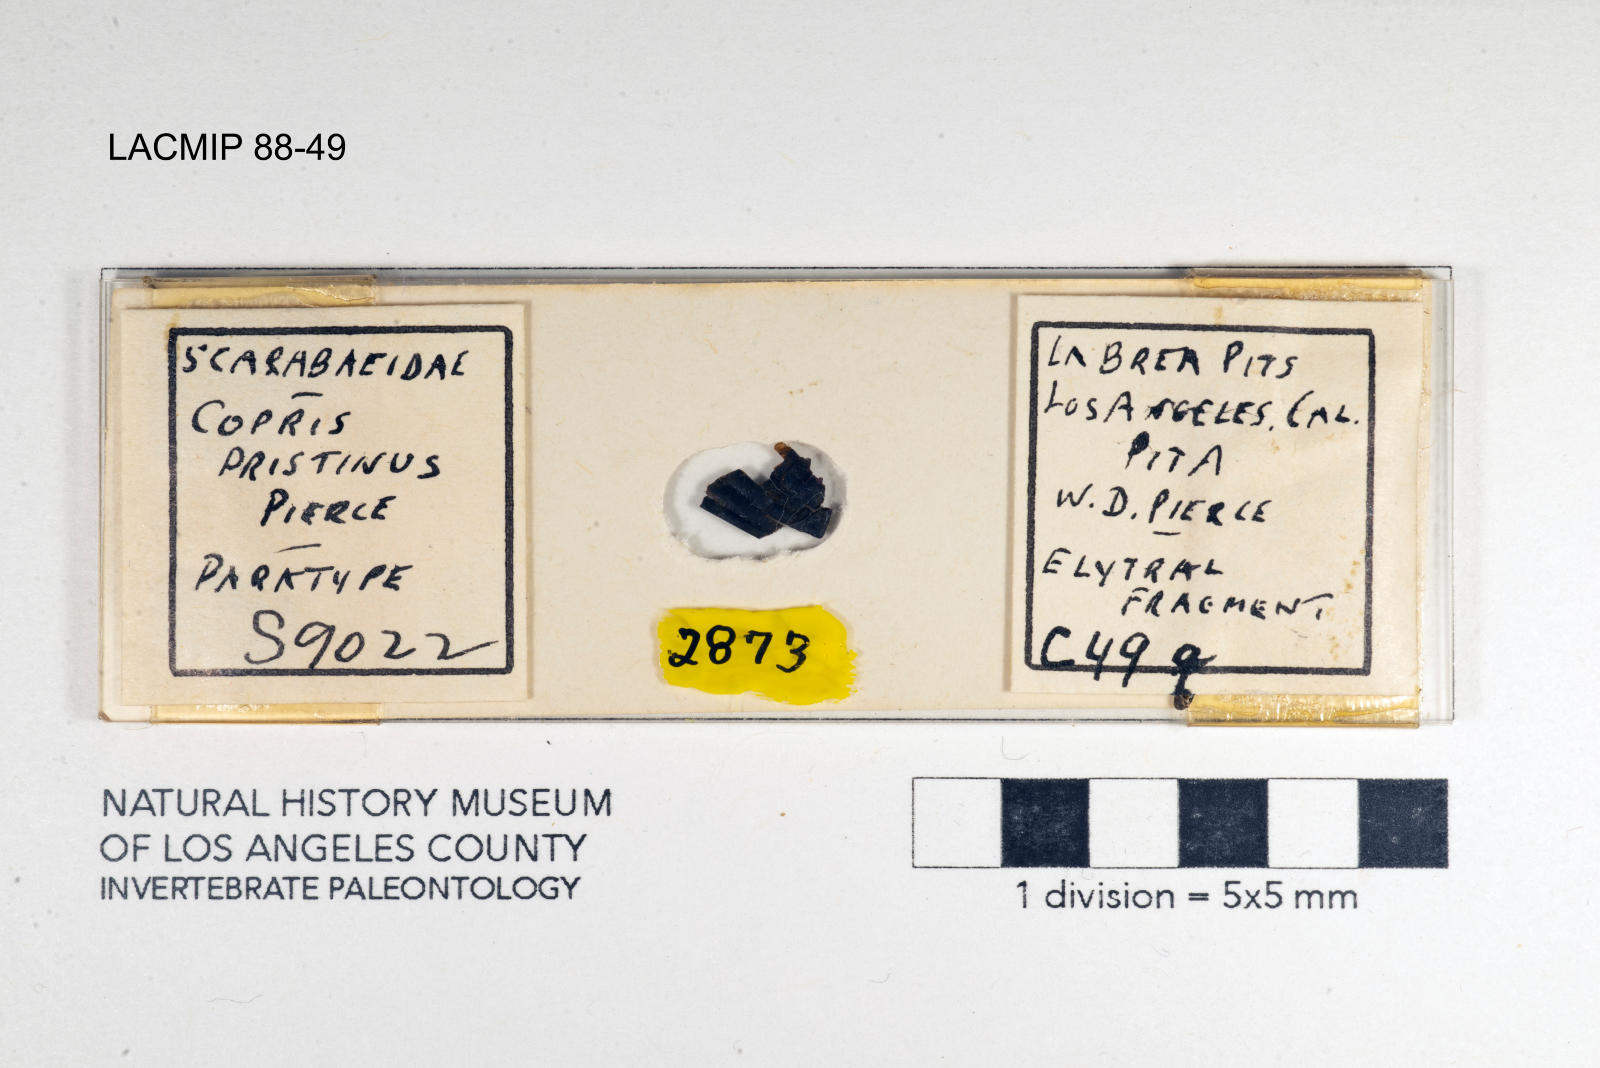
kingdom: Animalia
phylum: Arthropoda
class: Insecta
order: Coleoptera
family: Scarabaeidae
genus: Copris
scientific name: Copris pristinus
